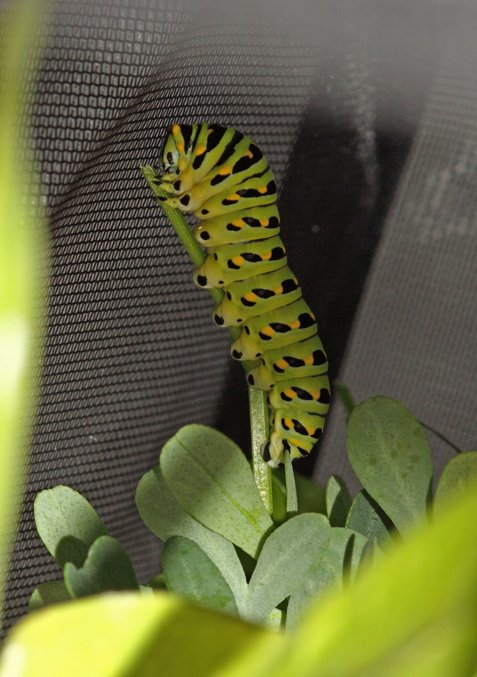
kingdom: Animalia
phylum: Arthropoda
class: Insecta
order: Lepidoptera
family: Papilionidae
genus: Papilio
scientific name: Papilio polyxenes
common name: Black Swallowtail
